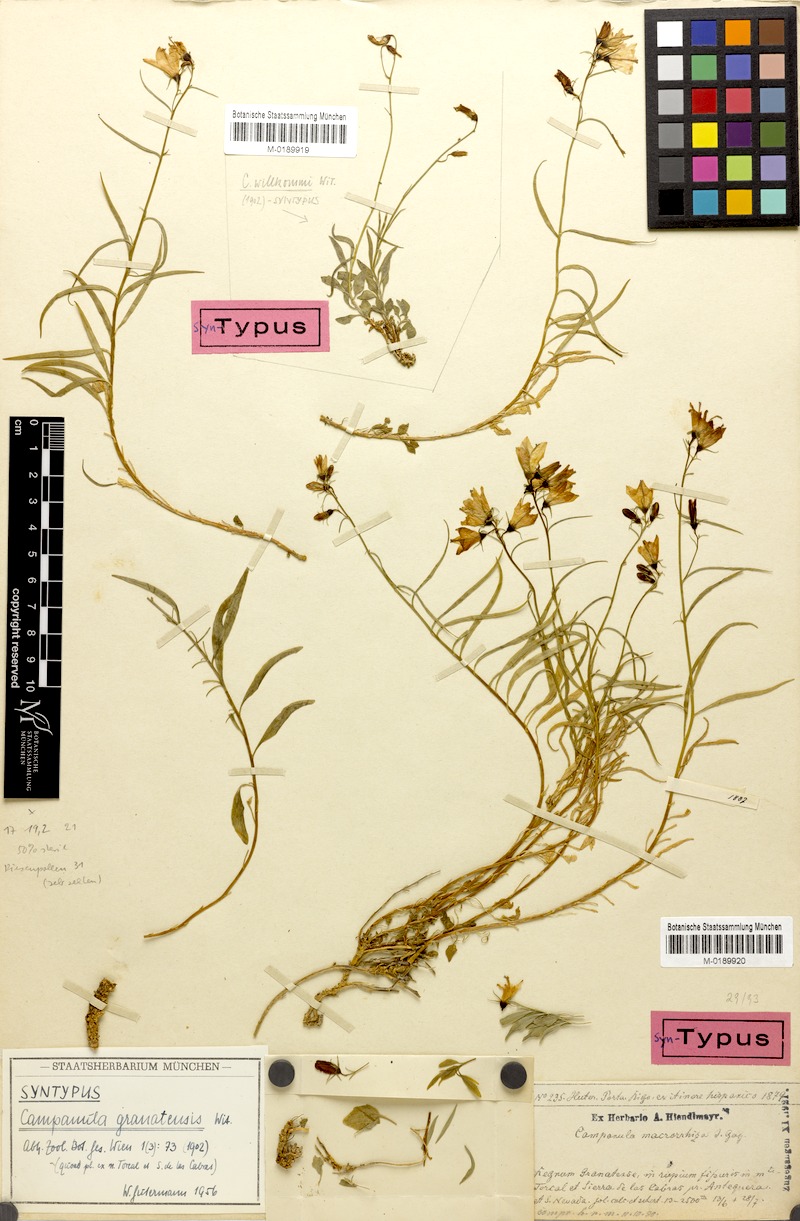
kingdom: Plantae
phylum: Tracheophyta
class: Magnoliopsida
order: Asterales
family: Campanulaceae
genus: Campanula
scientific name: Campanula hispanica
